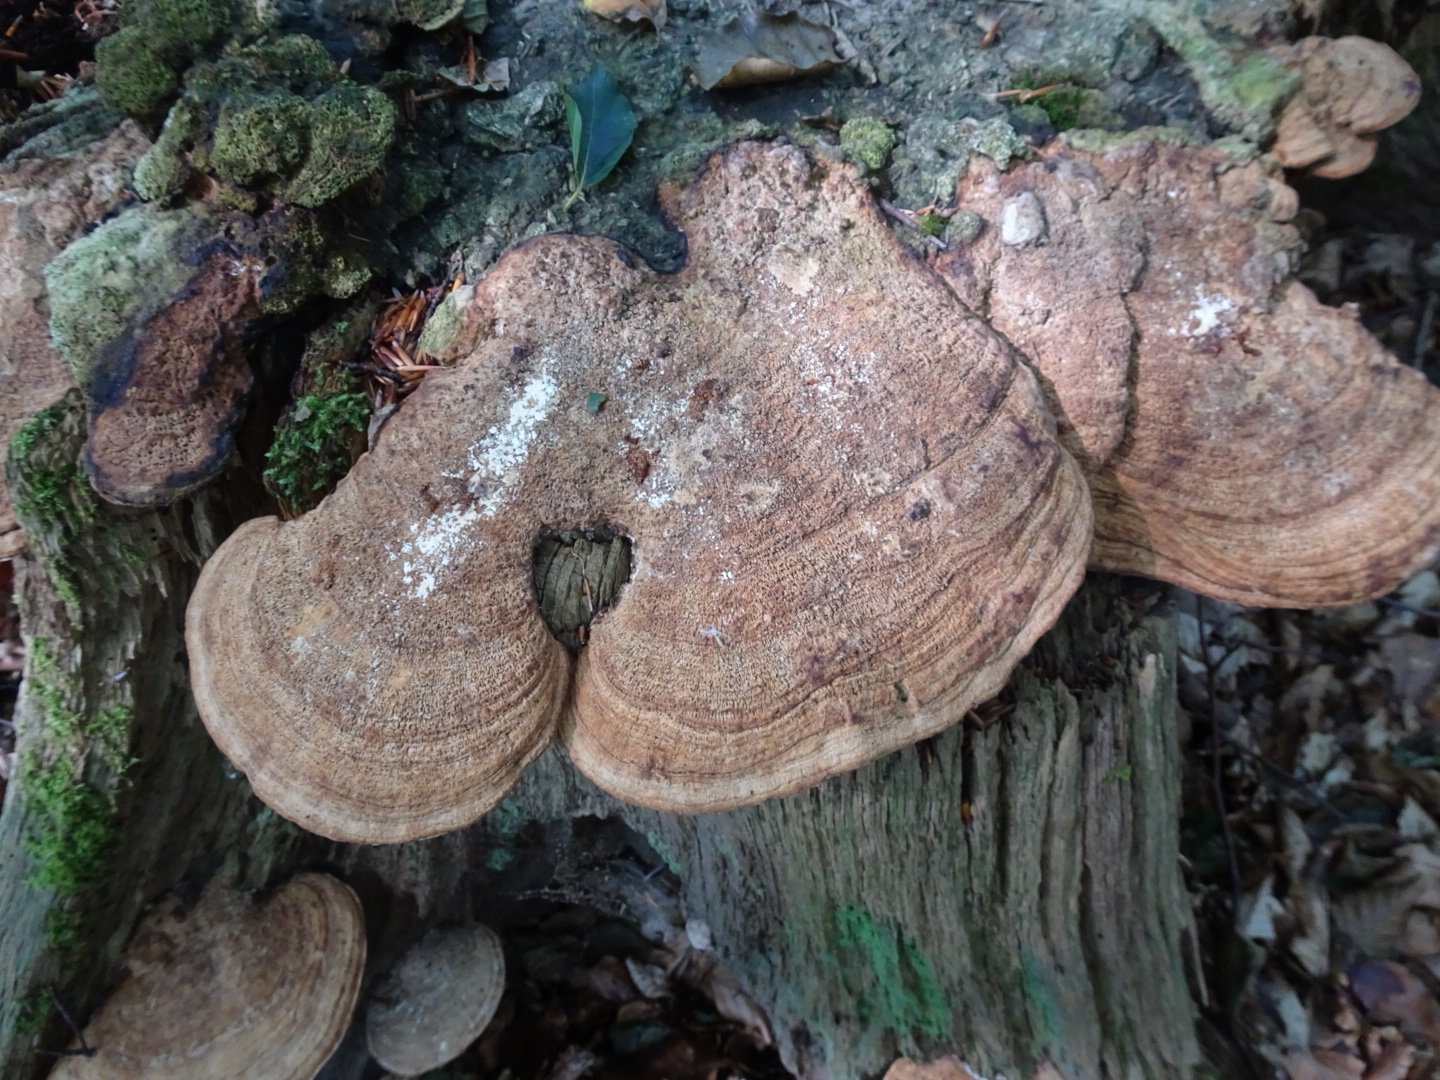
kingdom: Fungi
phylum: Basidiomycota
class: Agaricomycetes
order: Polyporales
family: Fomitopsidaceae
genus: Daedalea
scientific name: Daedalea quercina
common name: ege-labyrintsvamp
